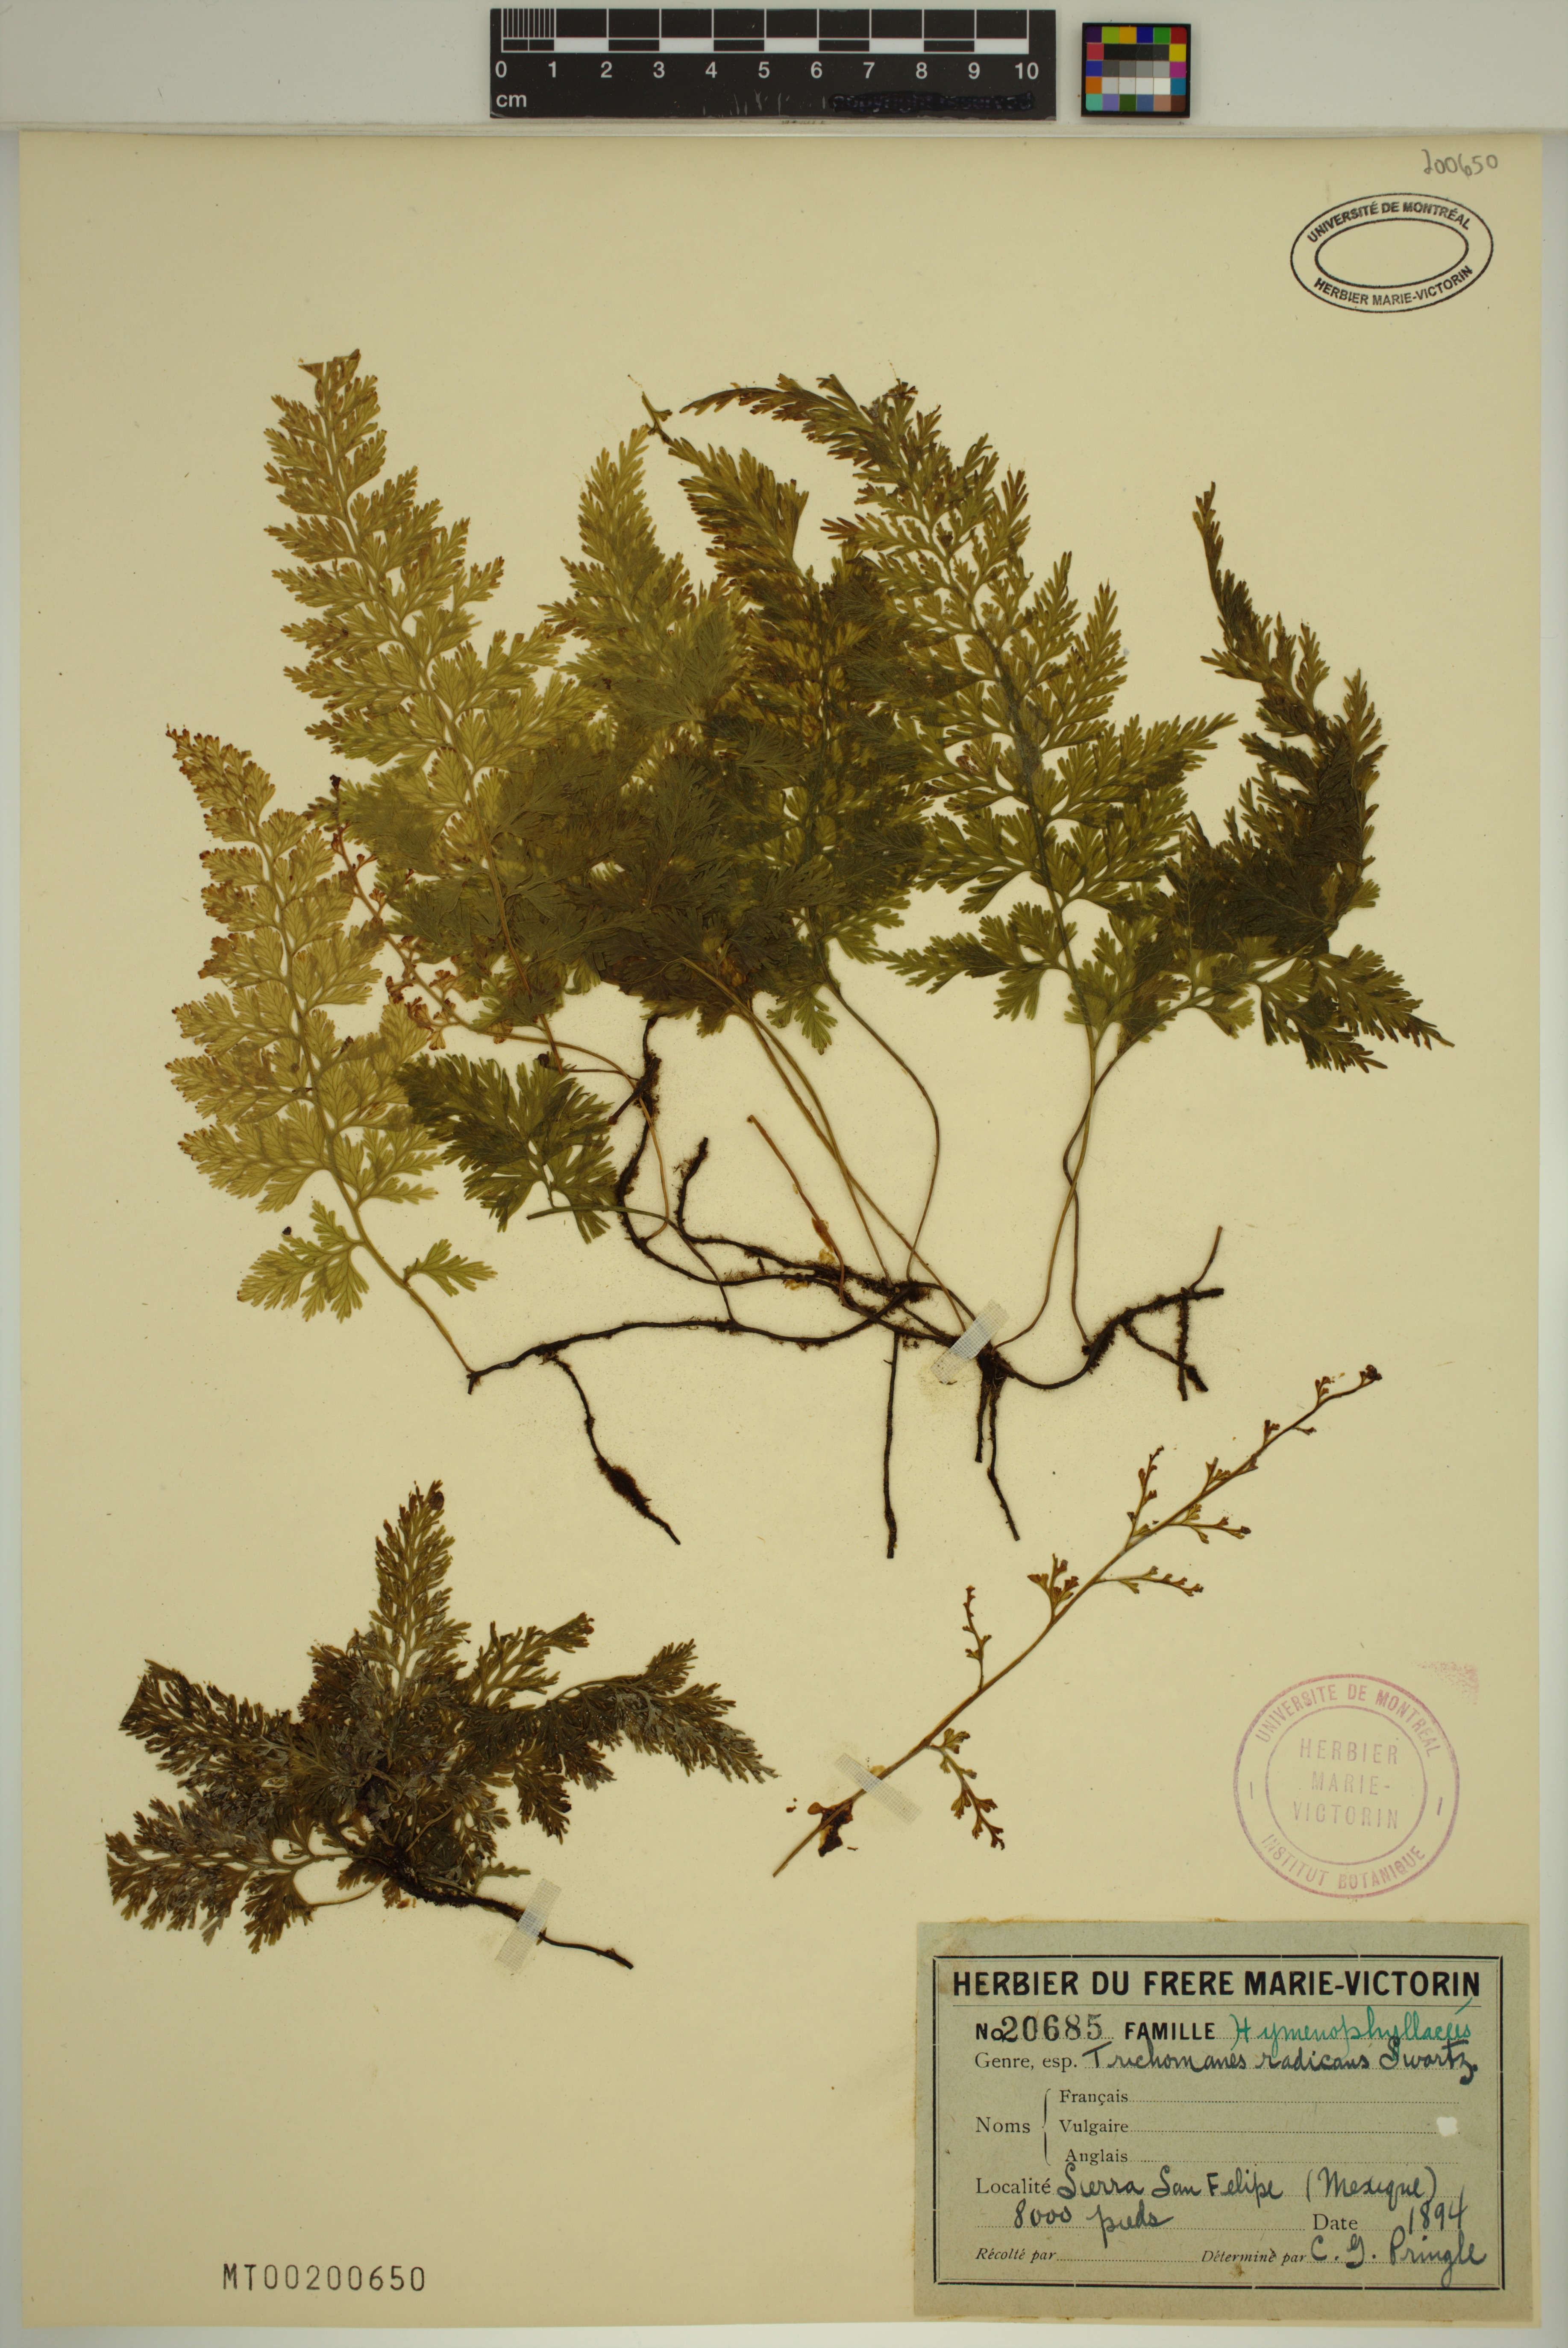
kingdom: Plantae
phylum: Tracheophyta
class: Polypodiopsida
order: Hymenophyllales
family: Hymenophyllaceae
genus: Vandenboschia
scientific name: Vandenboschia radicans
